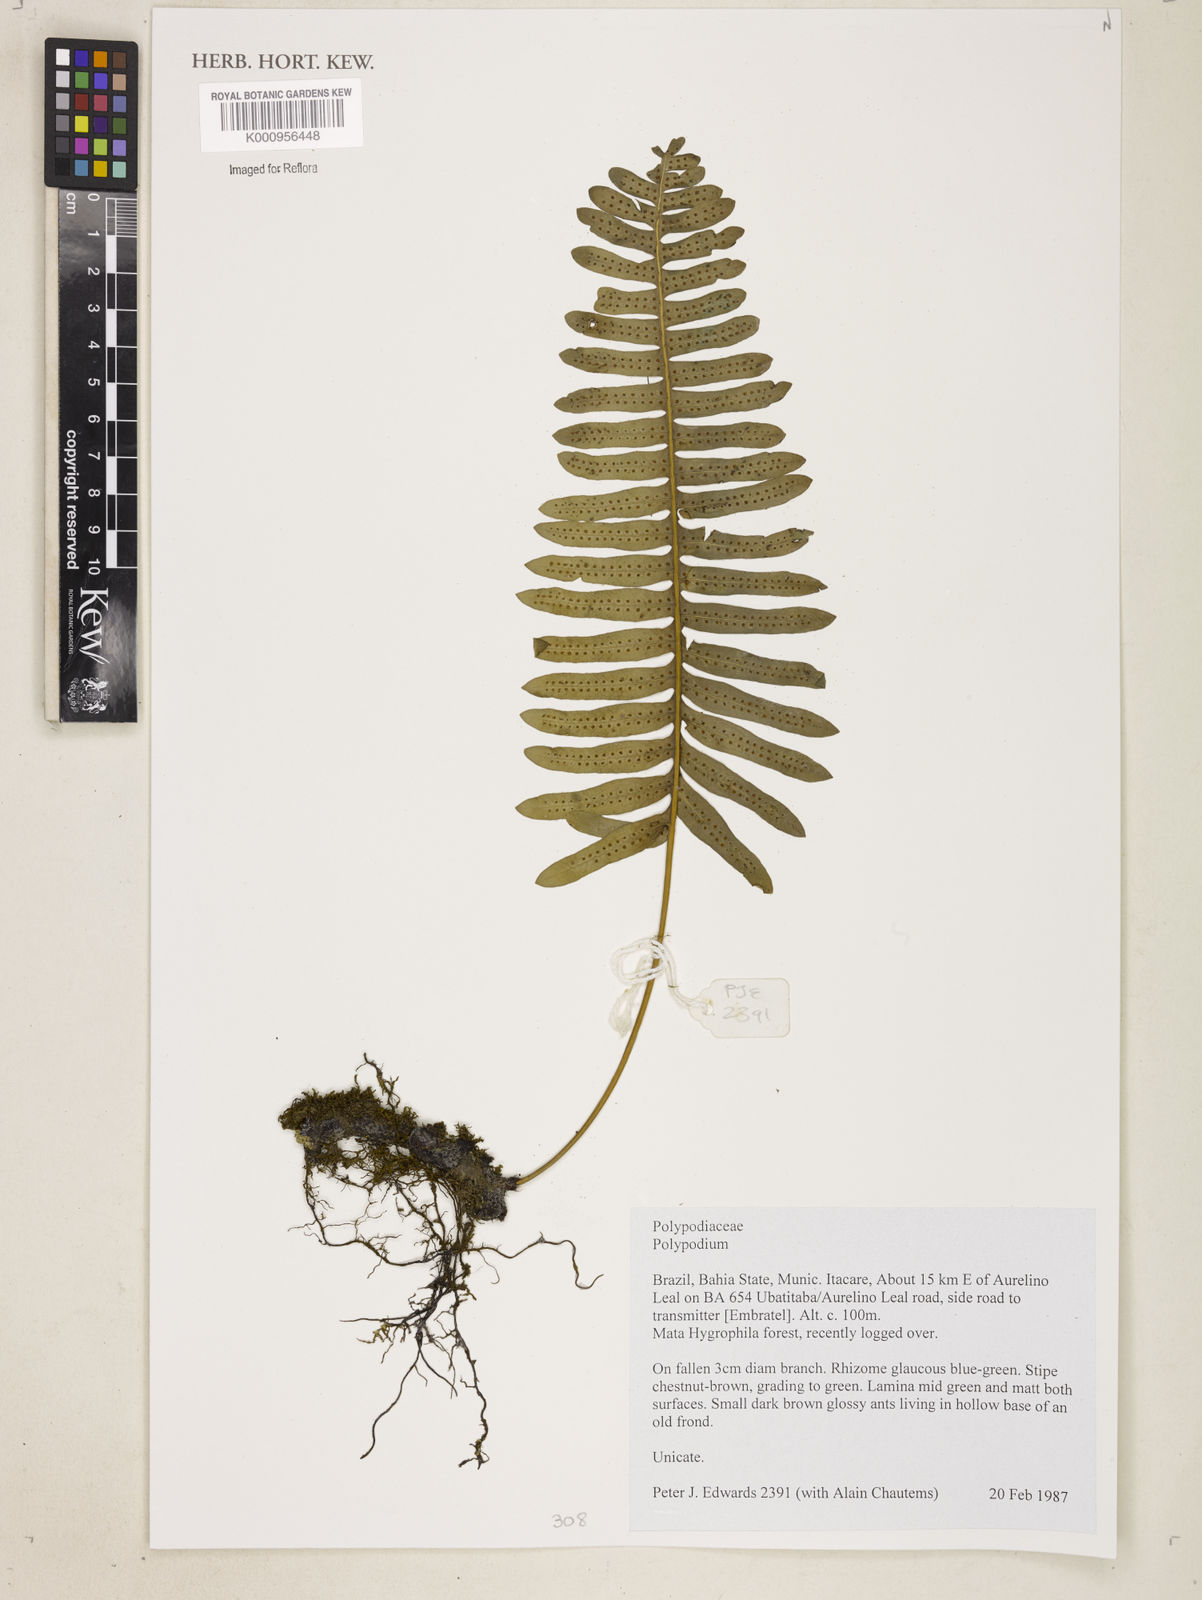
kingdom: Plantae
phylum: Tracheophyta
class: Polypodiopsida
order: Polypodiales
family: Polypodiaceae
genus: Polypodium
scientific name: Polypodium
